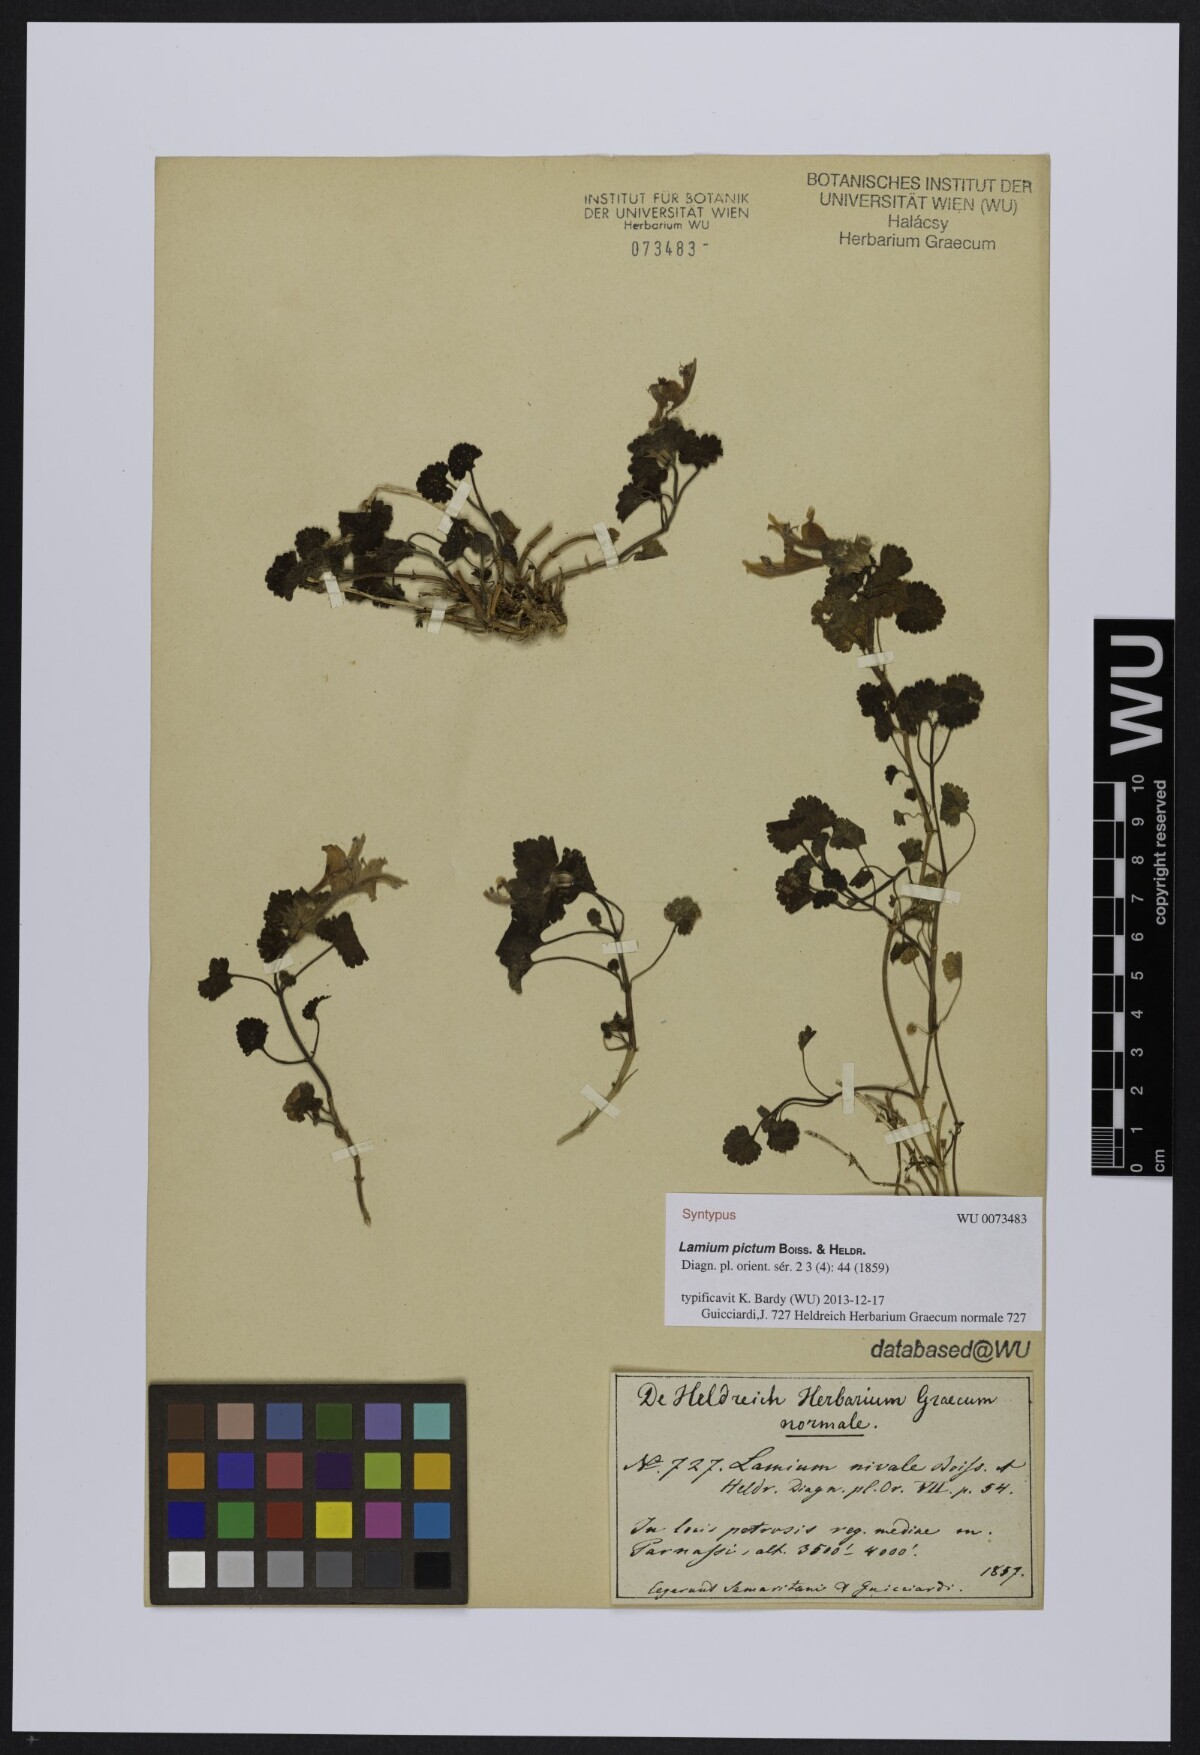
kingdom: Plantae
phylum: Tracheophyta
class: Magnoliopsida
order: Lamiales
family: Lamiaceae
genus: Lamium
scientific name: Lamium garganicum
